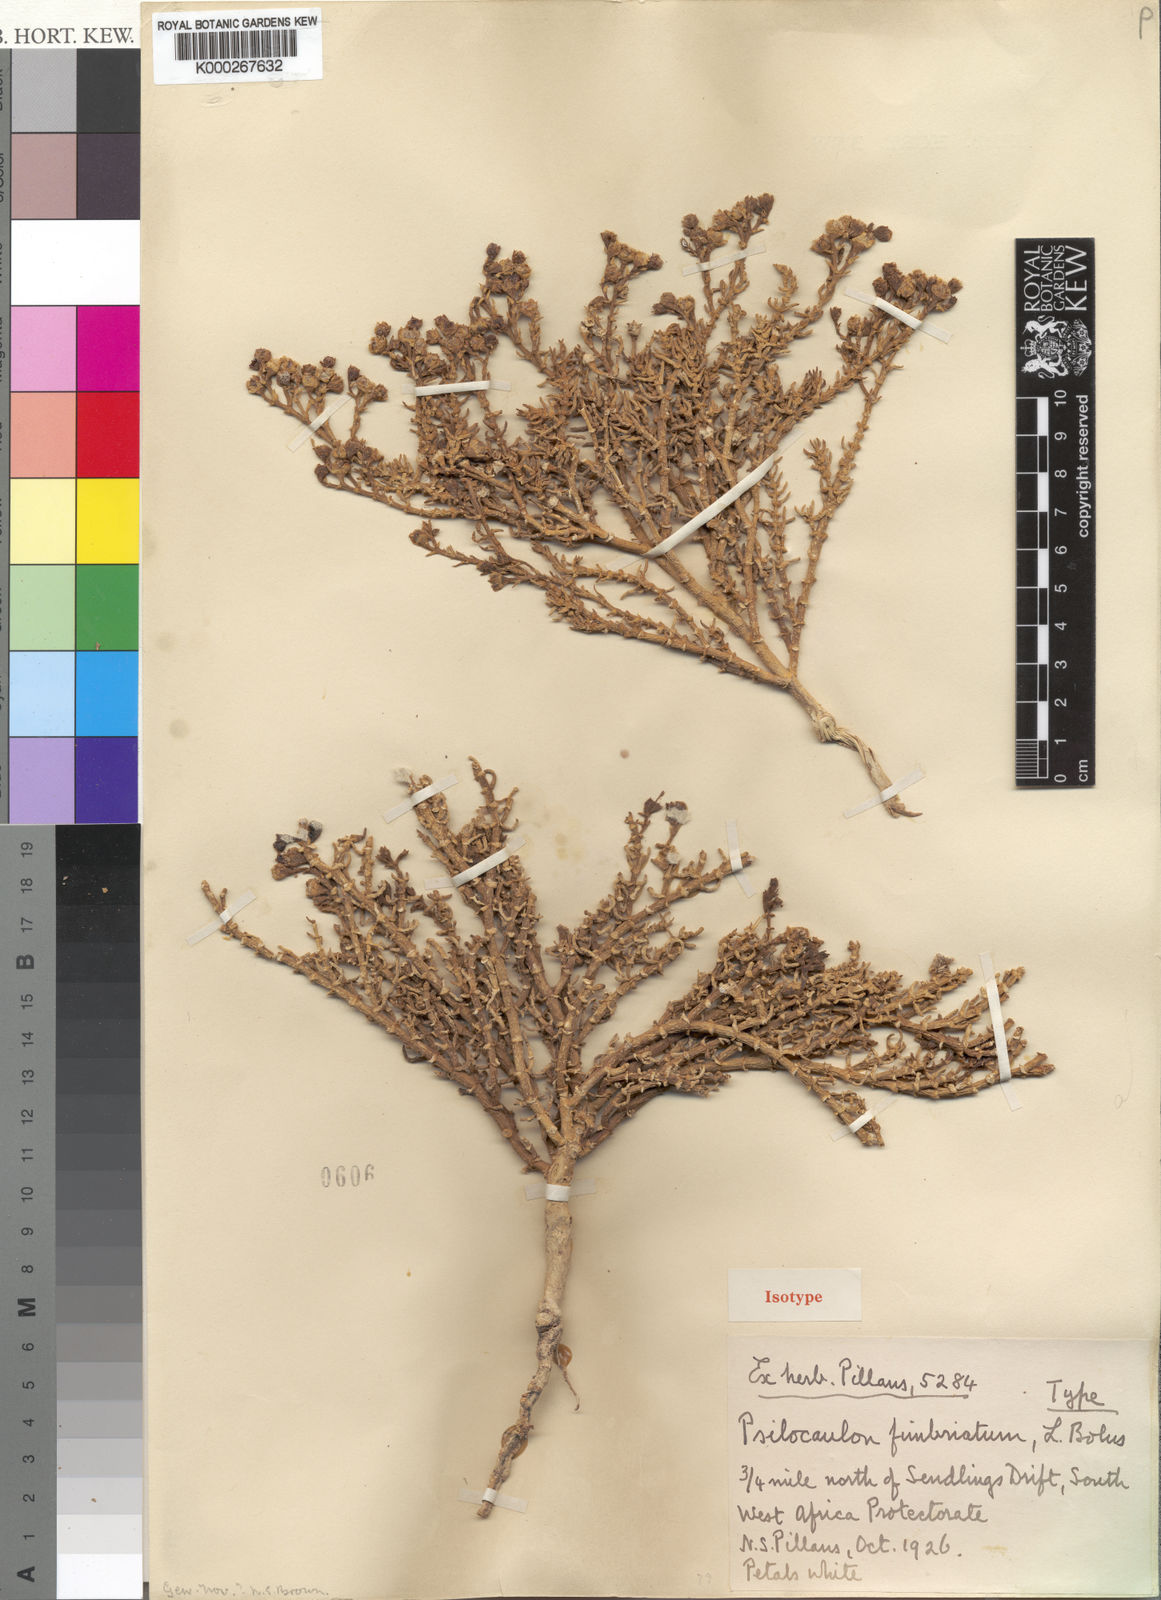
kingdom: Plantae
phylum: Tracheophyta
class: Magnoliopsida
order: Caryophyllales
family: Aizoaceae
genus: Mesembryanthemum
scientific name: Mesembryanthemum salicornioides
